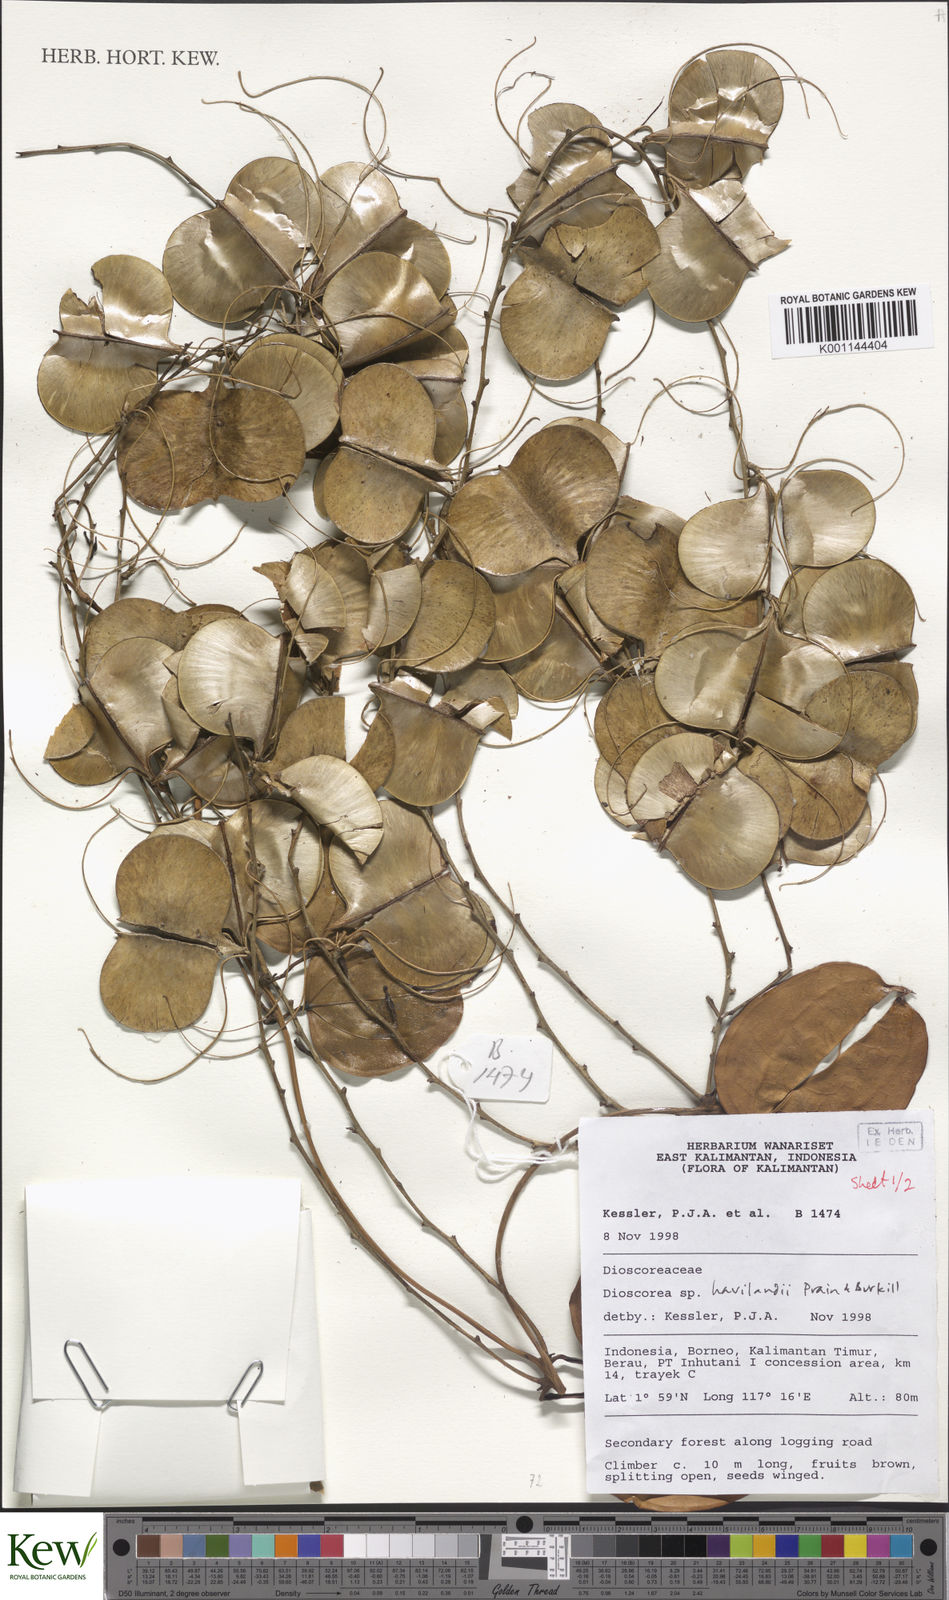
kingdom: Plantae
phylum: Tracheophyta
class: Liliopsida
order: Dioscoreales
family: Dioscoreaceae
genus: Dioscorea
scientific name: Dioscorea havilandii
